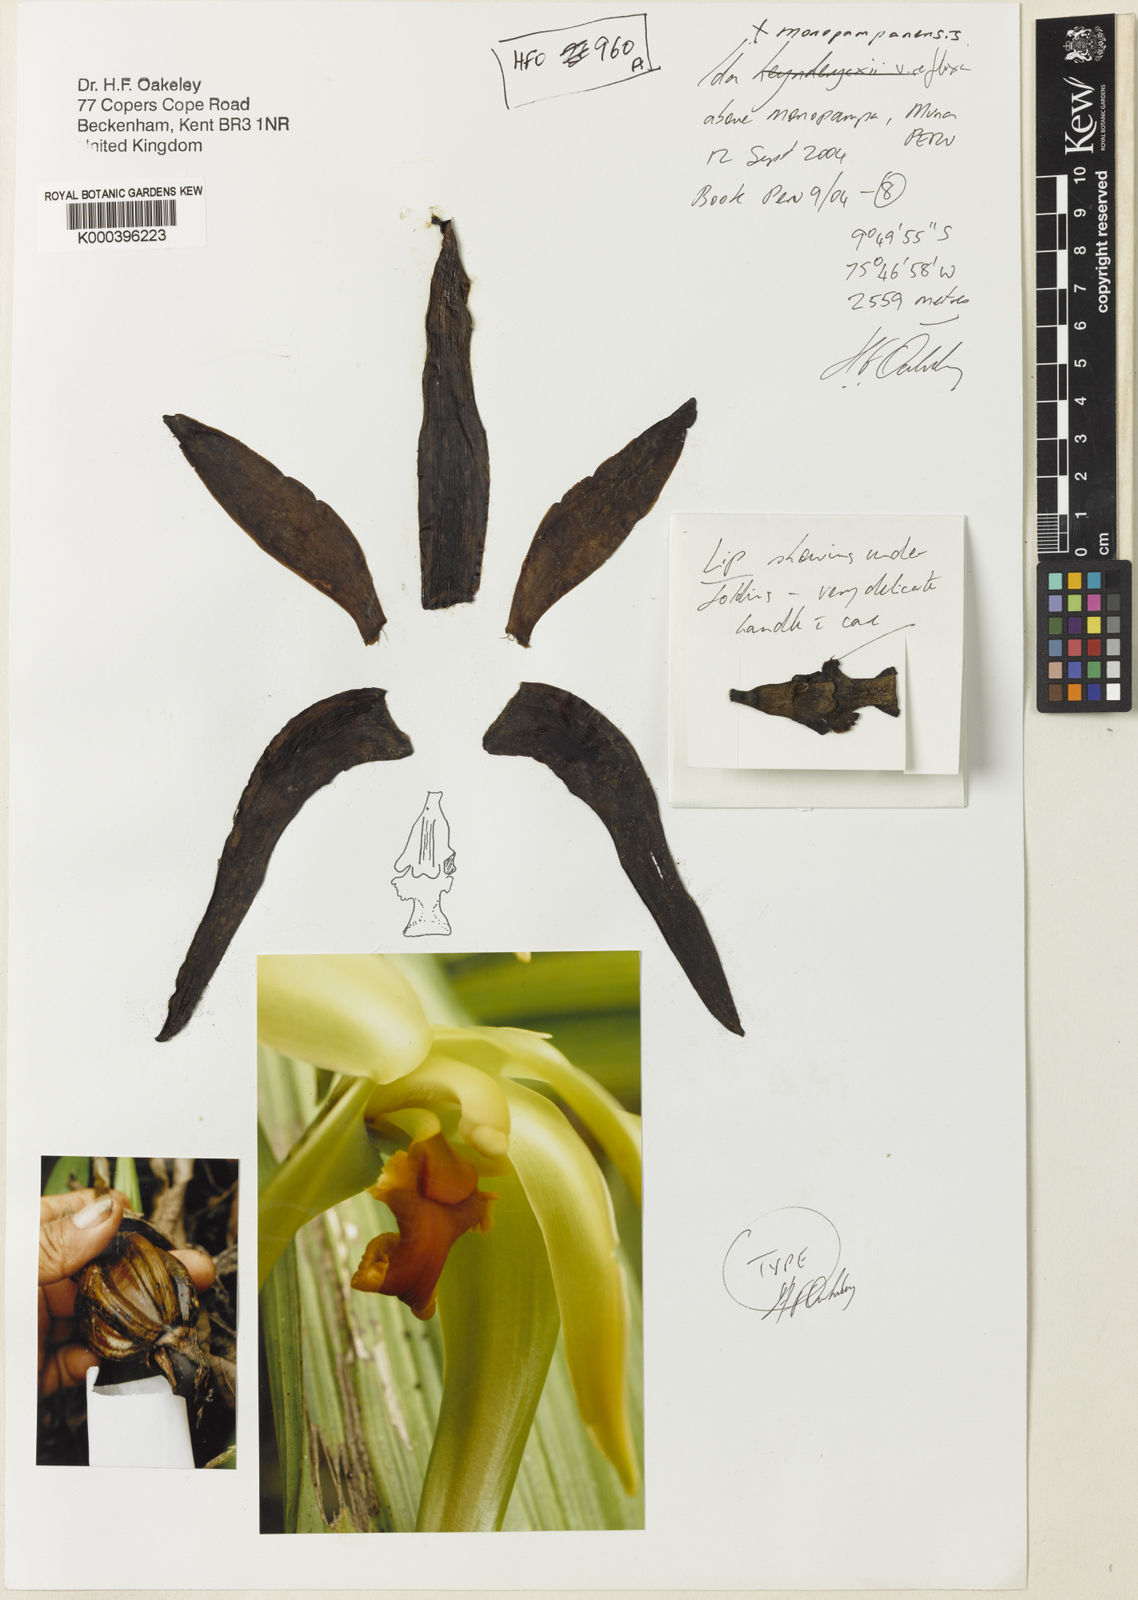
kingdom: Plantae
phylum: Tracheophyta
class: Liliopsida
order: Asparagales
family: Orchidaceae
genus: Ida
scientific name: Ida monopampanensis
